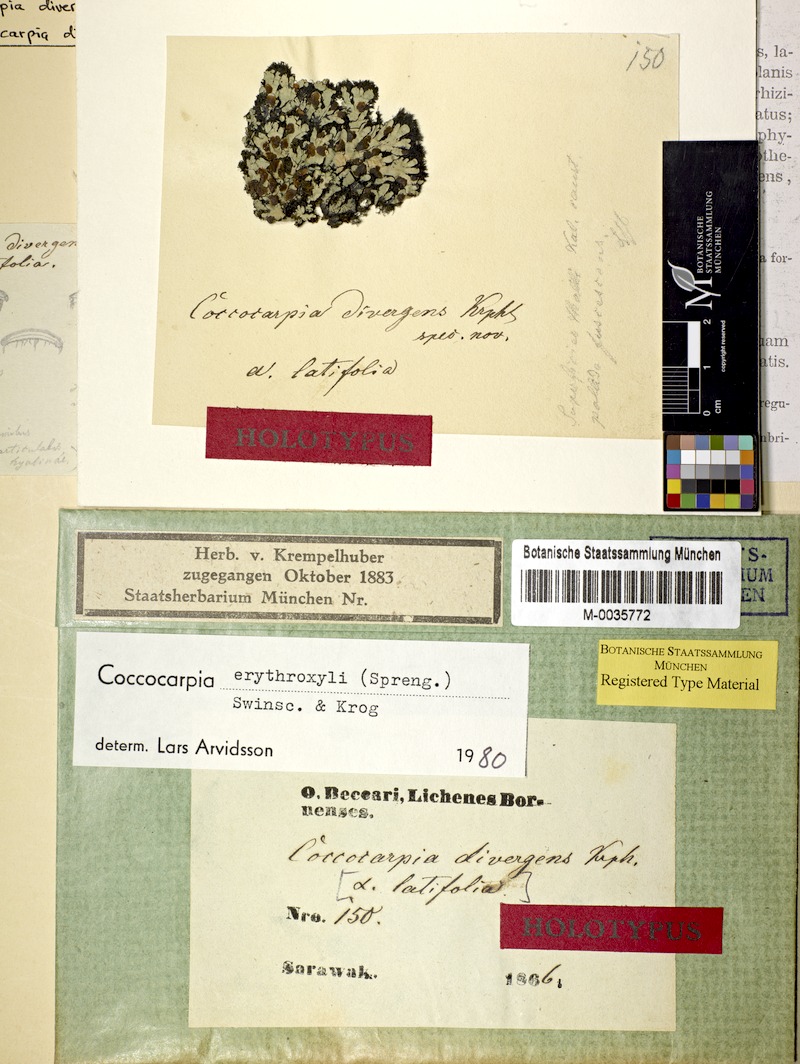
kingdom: Fungi
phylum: Ascomycota
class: Lecanoromycetes
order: Peltigerales
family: Coccocarpiaceae
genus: Coccocarpia
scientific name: Coccocarpia erythroxyli
